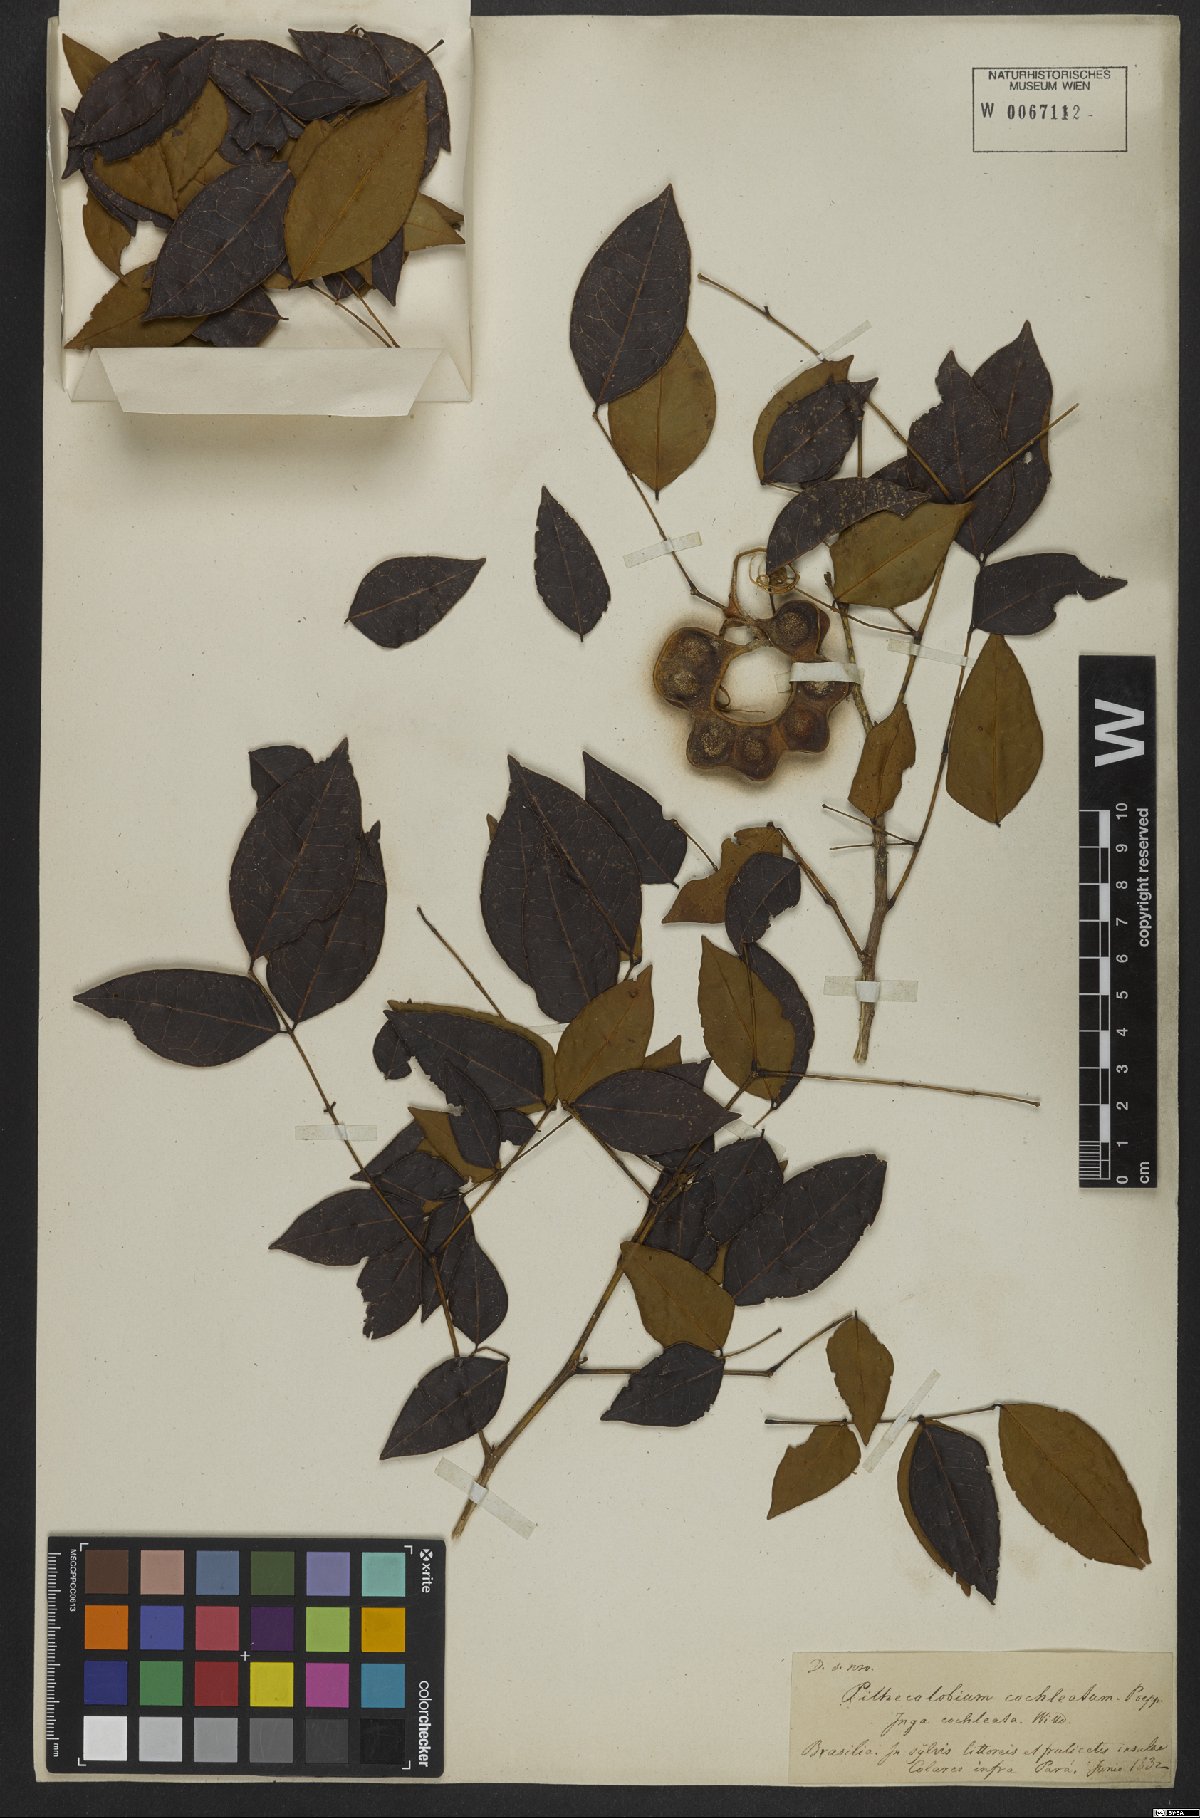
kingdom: Plantae
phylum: Tracheophyta
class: Magnoliopsida
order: Fabales
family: Fabaceae
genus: Jupunba
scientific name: Jupunba cochleata
